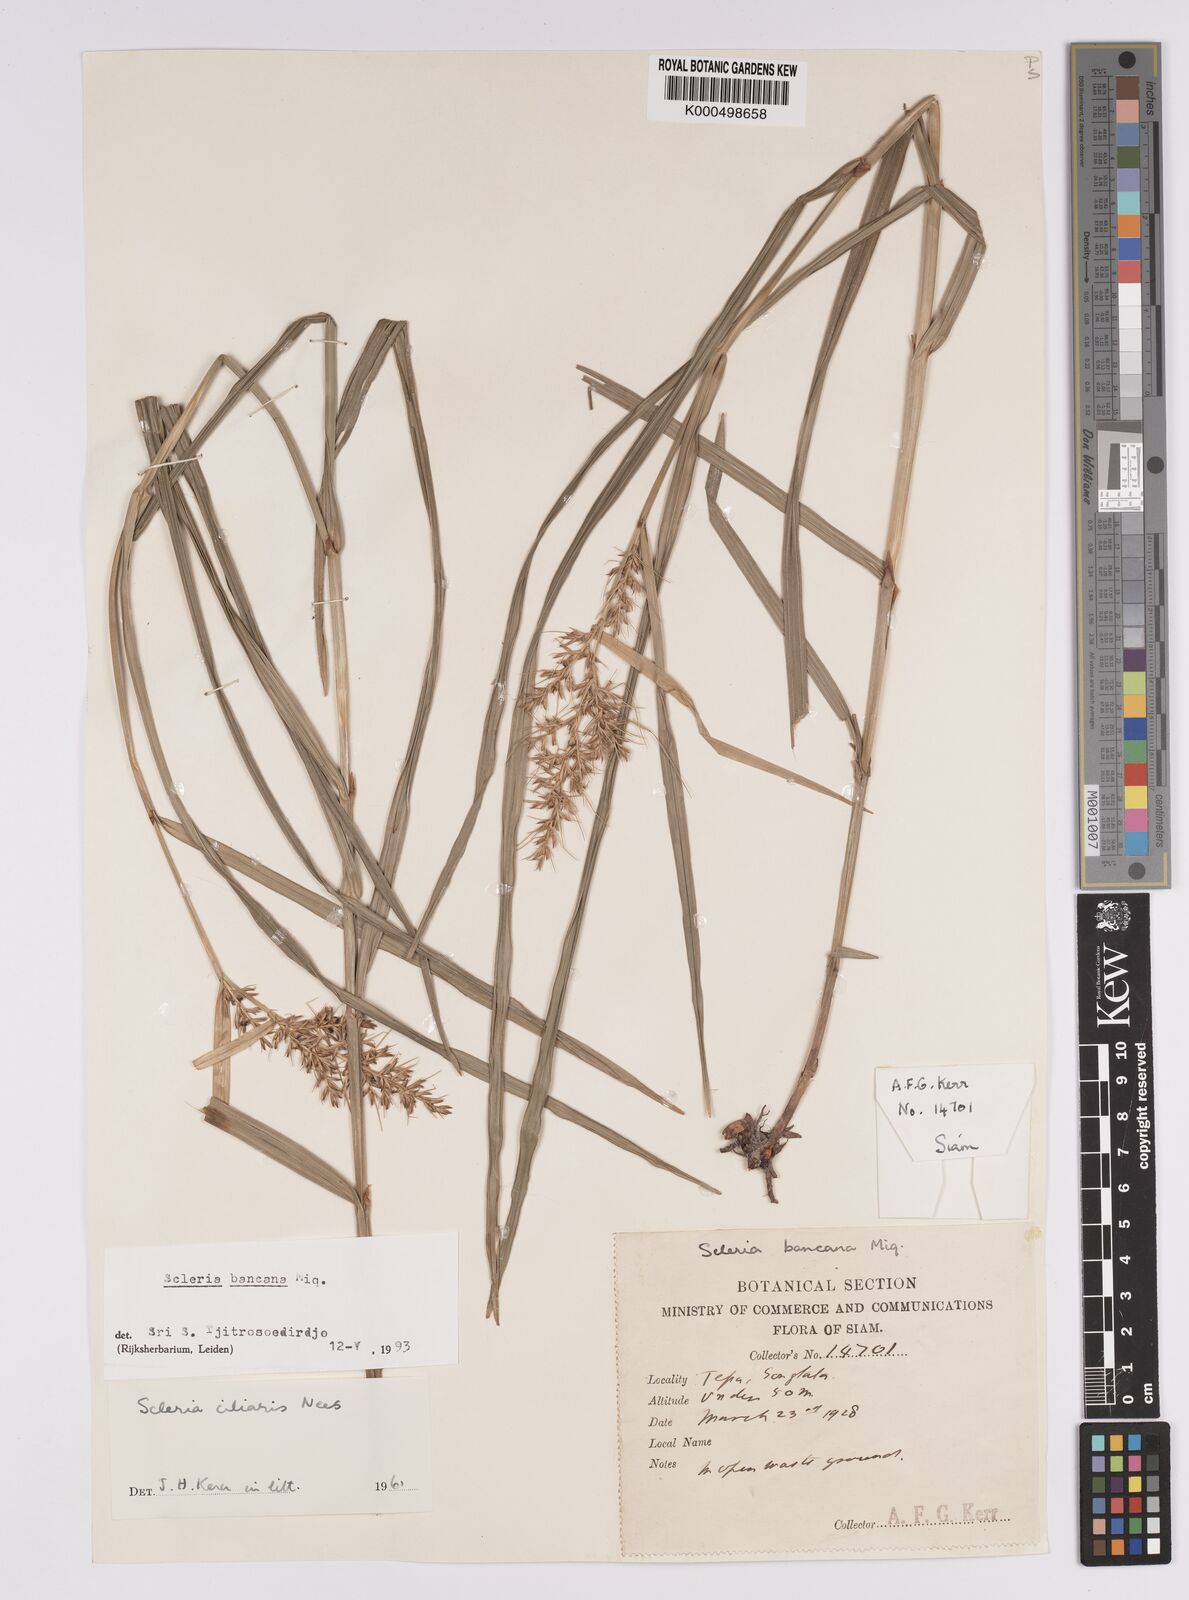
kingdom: Plantae
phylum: Tracheophyta
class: Liliopsida
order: Poales
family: Cyperaceae
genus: Scleria
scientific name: Scleria ciliaris
